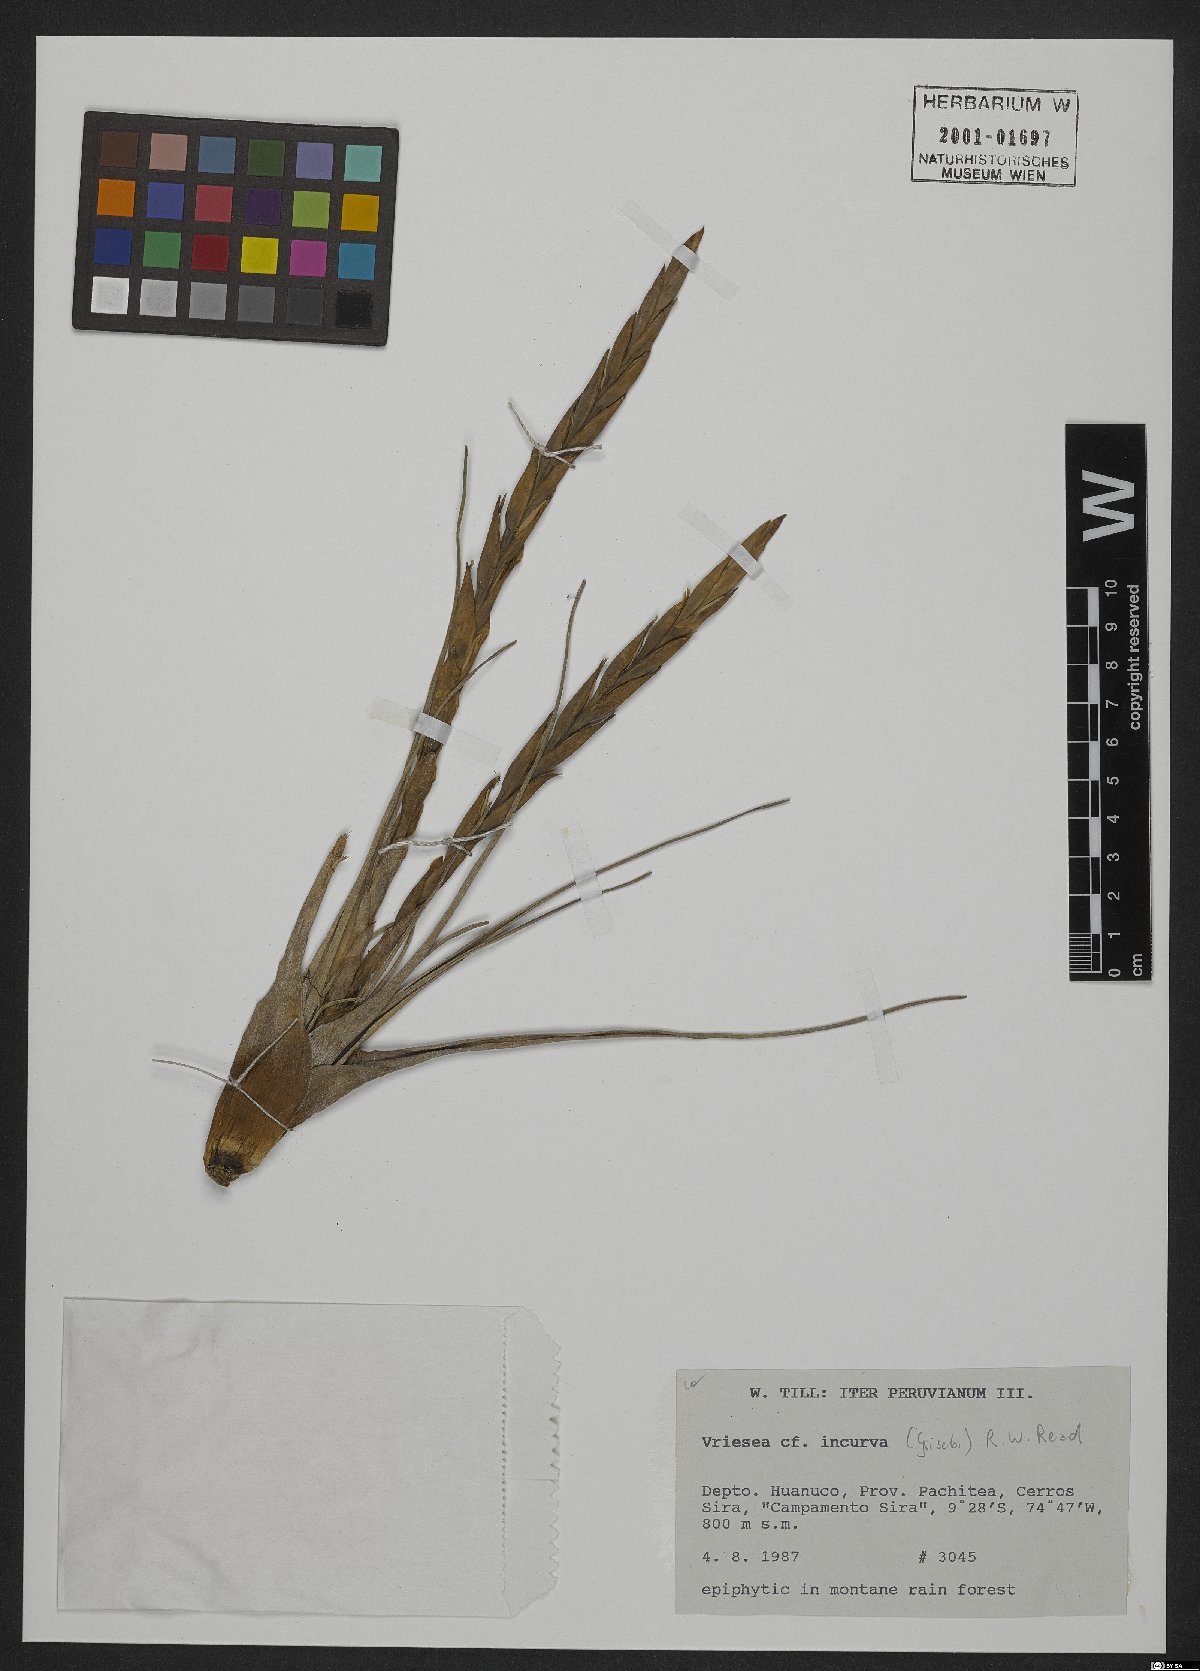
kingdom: Plantae
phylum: Tracheophyta
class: Liliopsida
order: Poales
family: Bromeliaceae
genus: Vriesea
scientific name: Vriesea incurva
